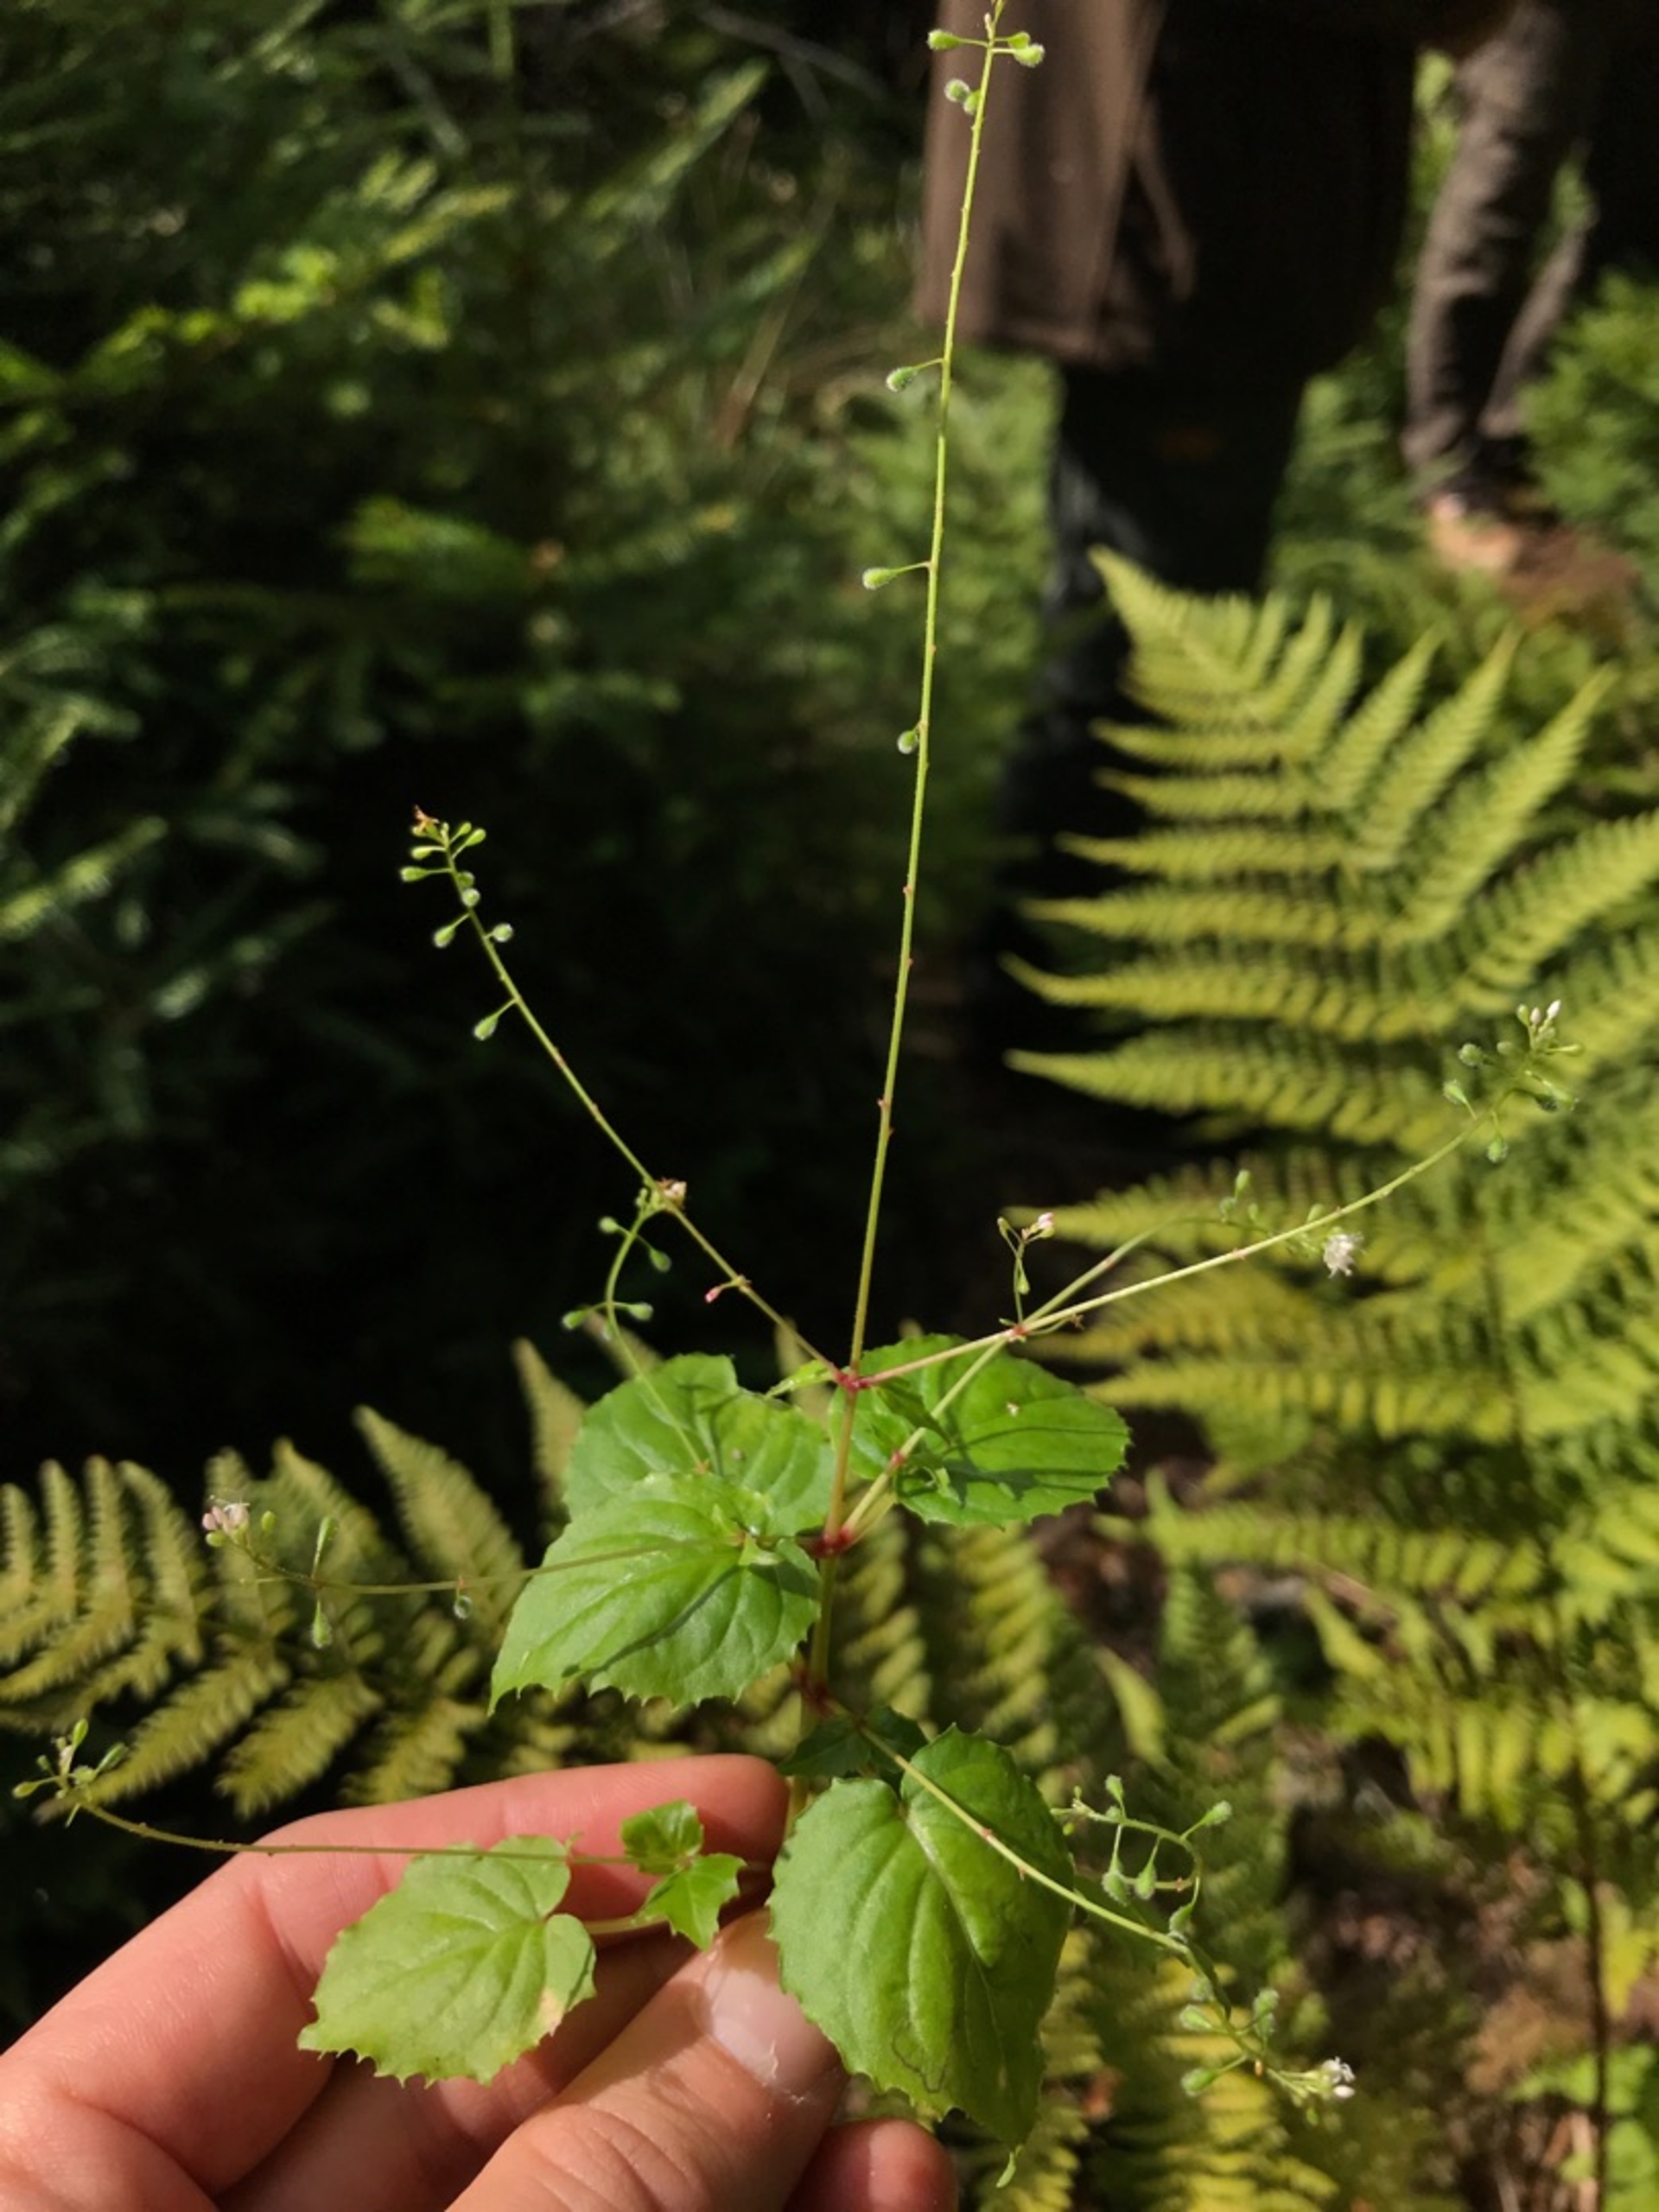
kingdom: Plantae
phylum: Tracheophyta
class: Magnoliopsida
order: Myrtales
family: Onagraceae
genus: Circaea
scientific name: Circaea alpina
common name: Liden steffensurt
